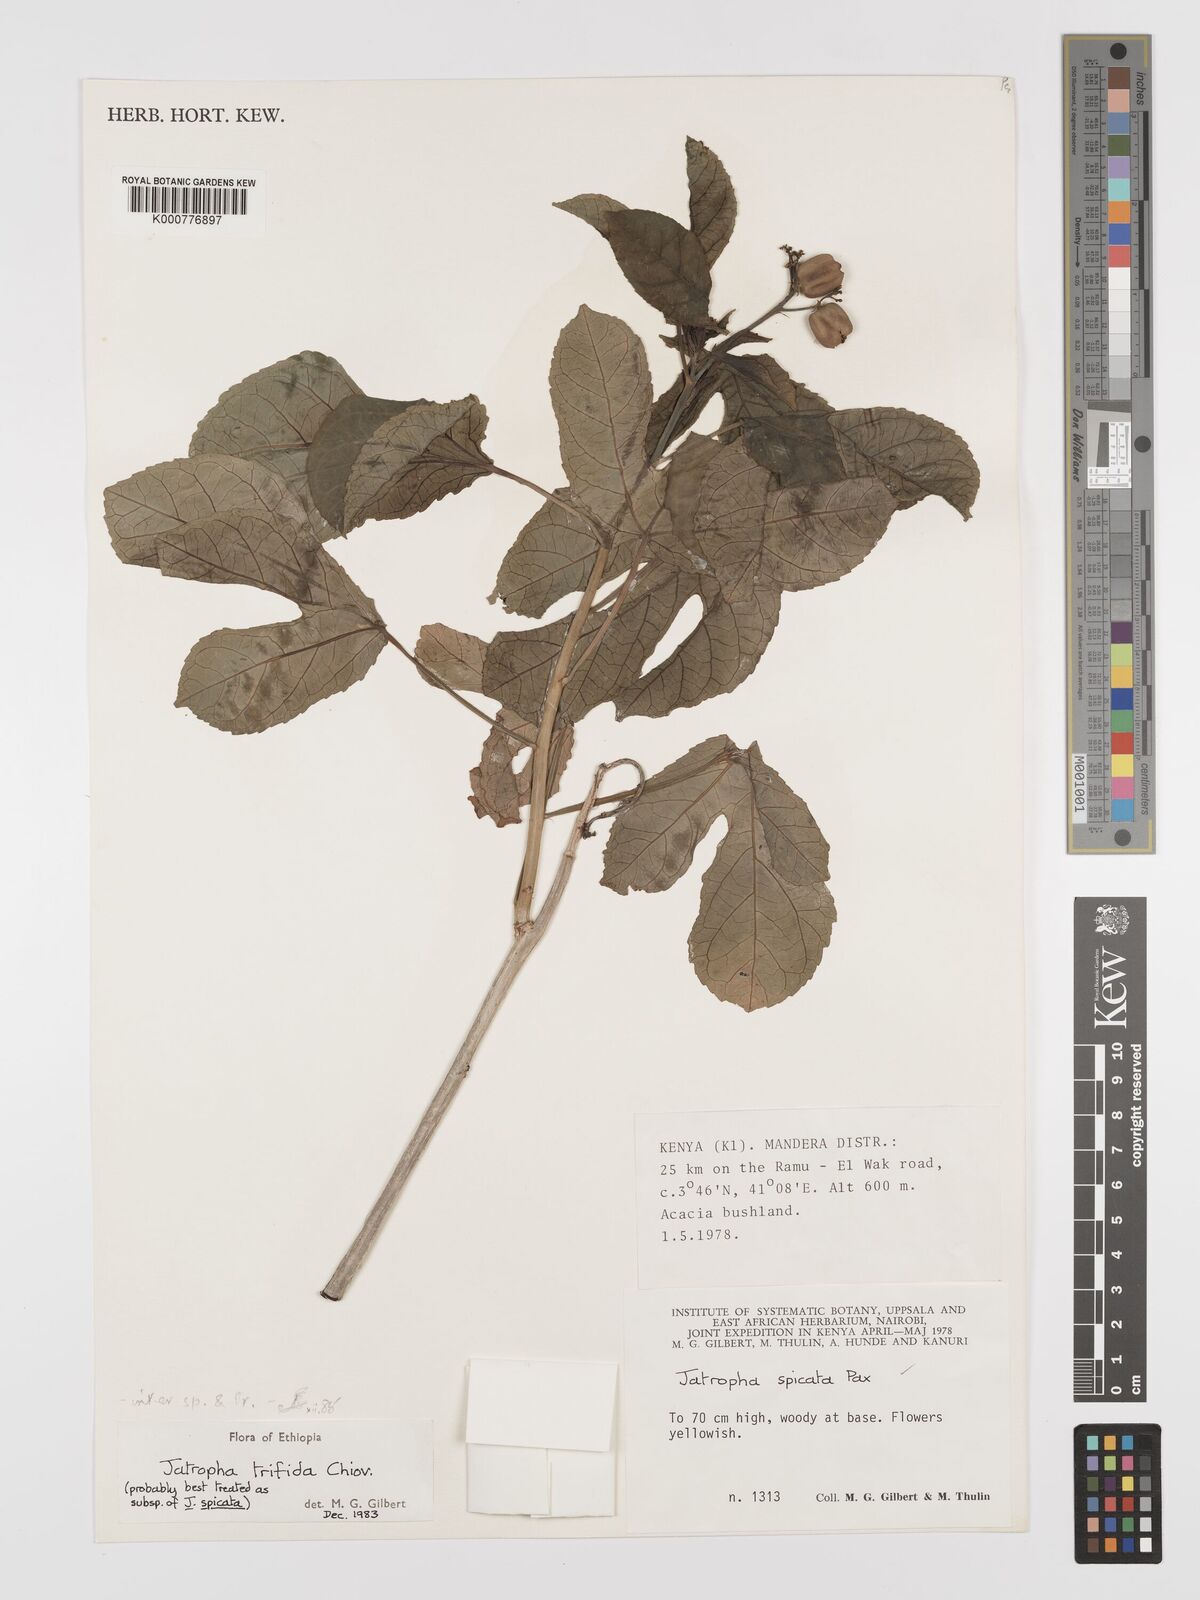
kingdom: Plantae
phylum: Tracheophyta
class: Magnoliopsida
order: Malpighiales
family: Euphorbiaceae
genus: Jatropha
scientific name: Jatropha trifida
